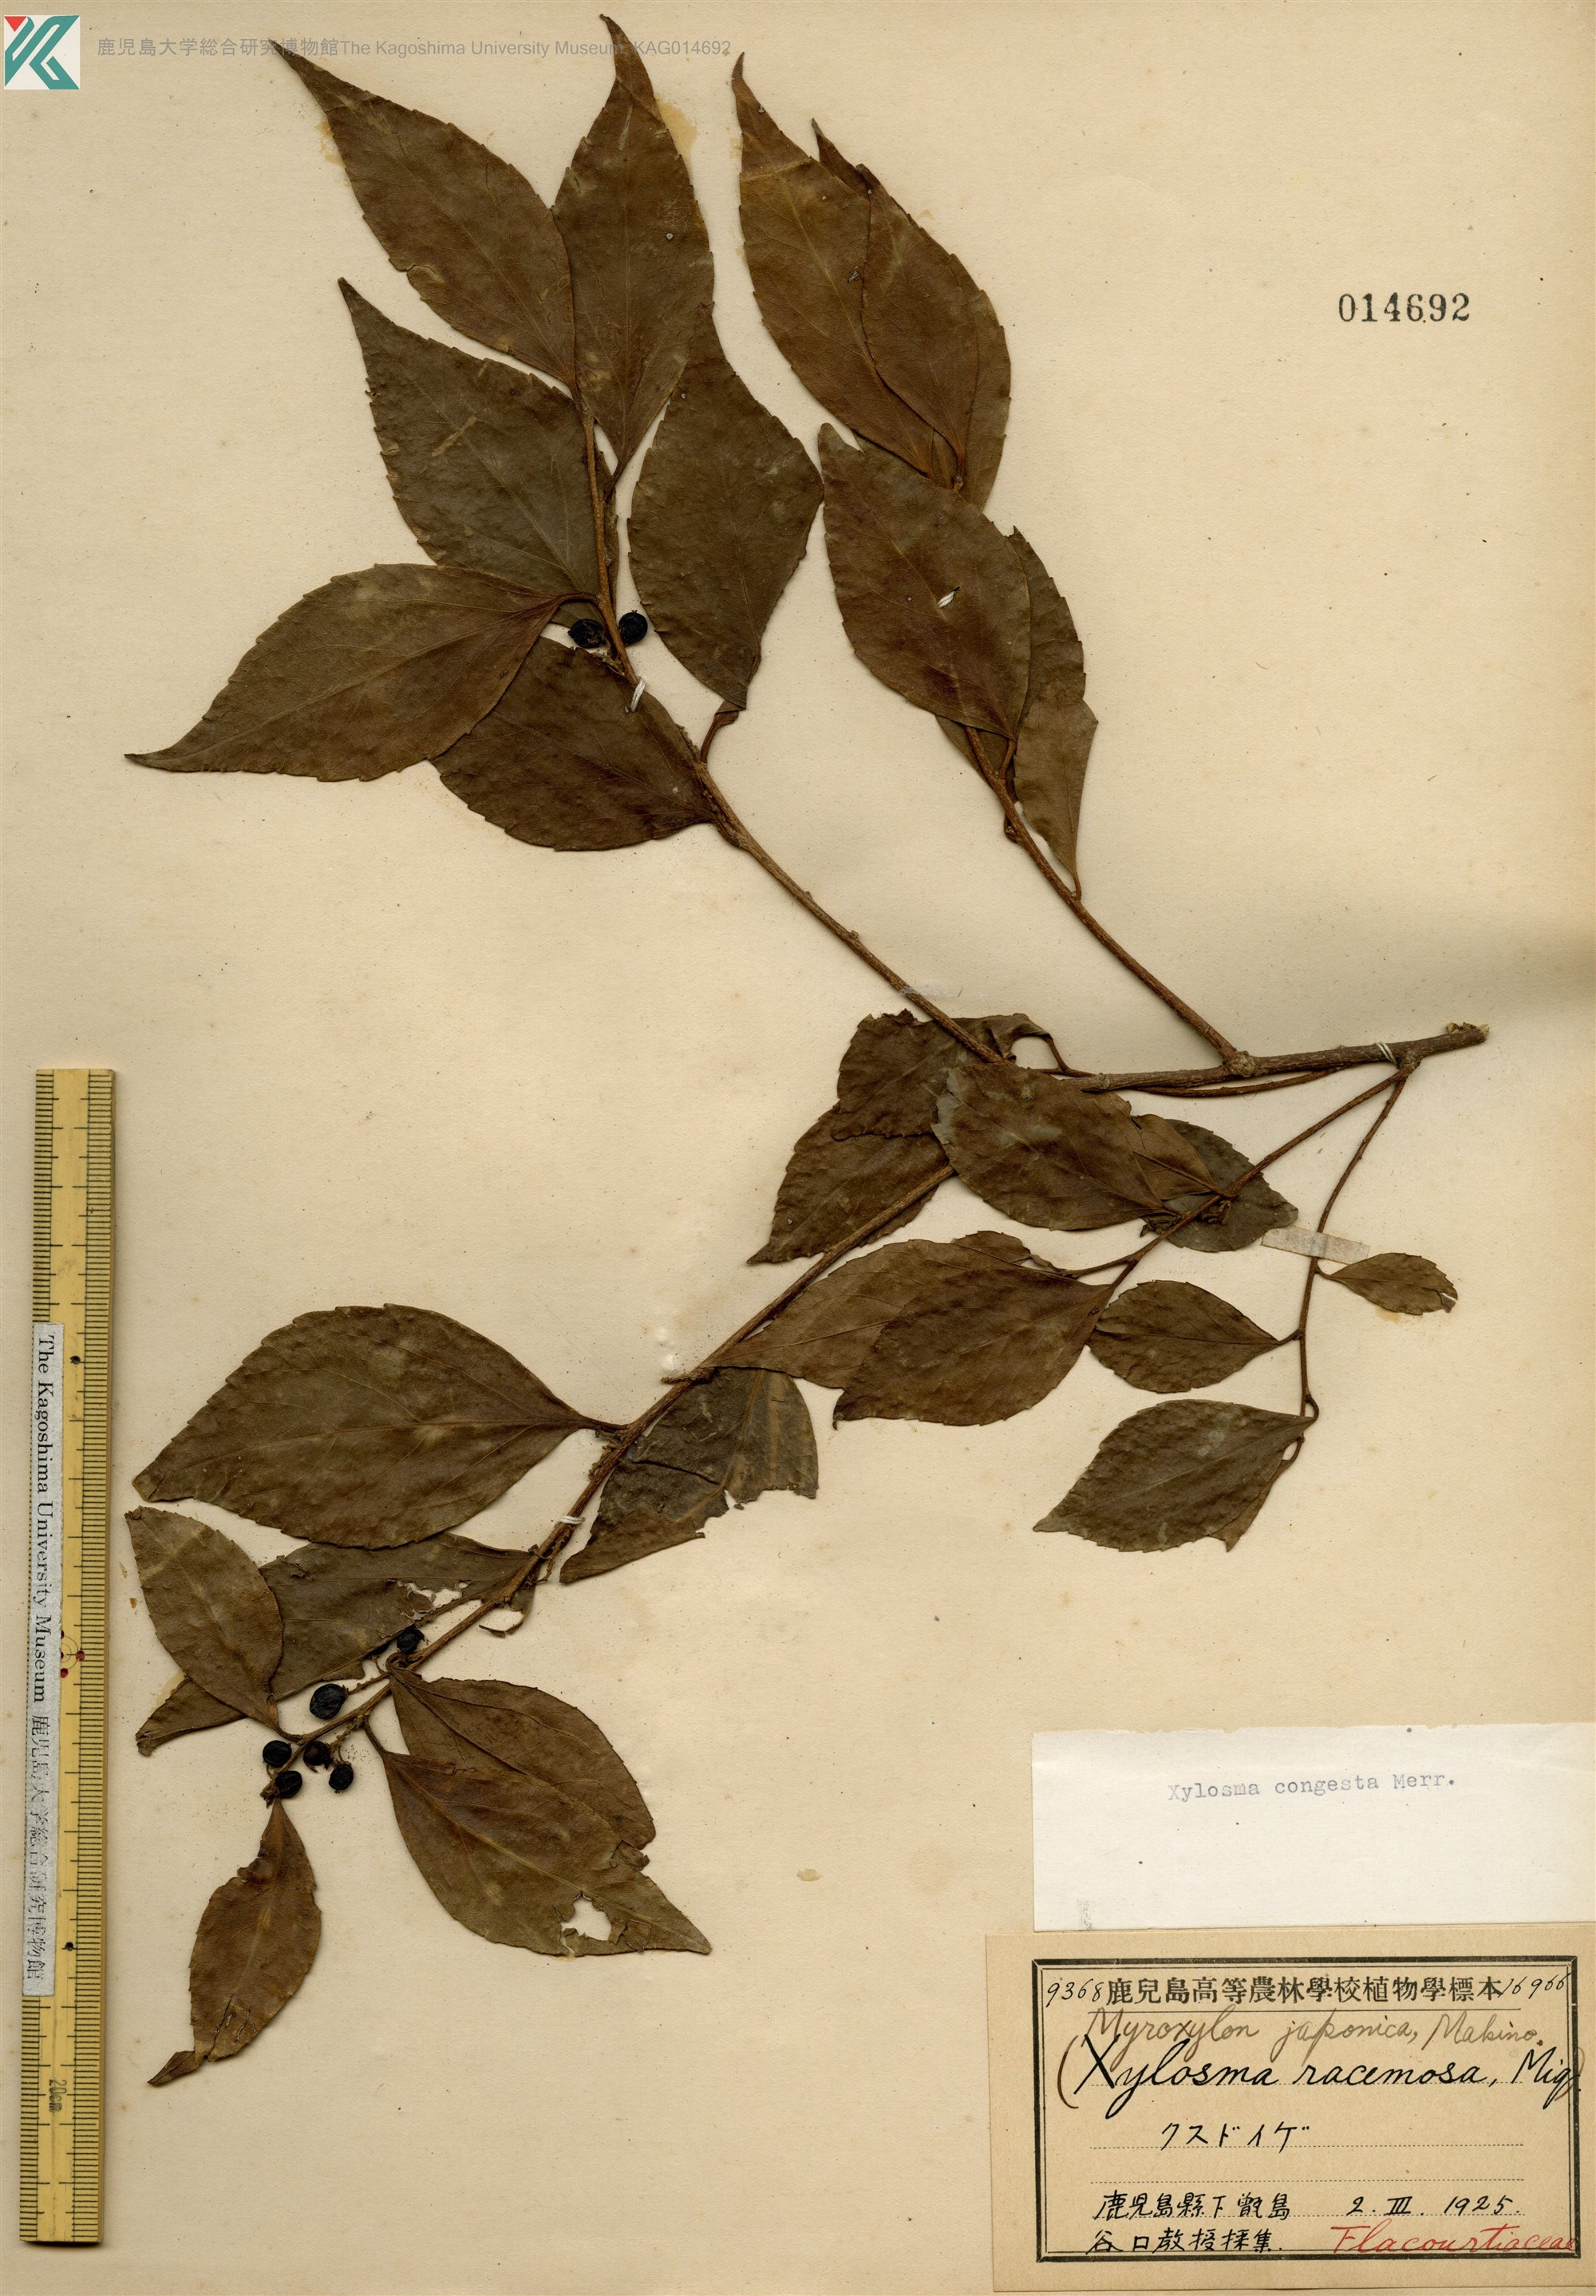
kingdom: Plantae
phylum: Tracheophyta
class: Magnoliopsida
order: Malpighiales
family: Salicaceae
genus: Xylosma
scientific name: Xylosma racemosum
